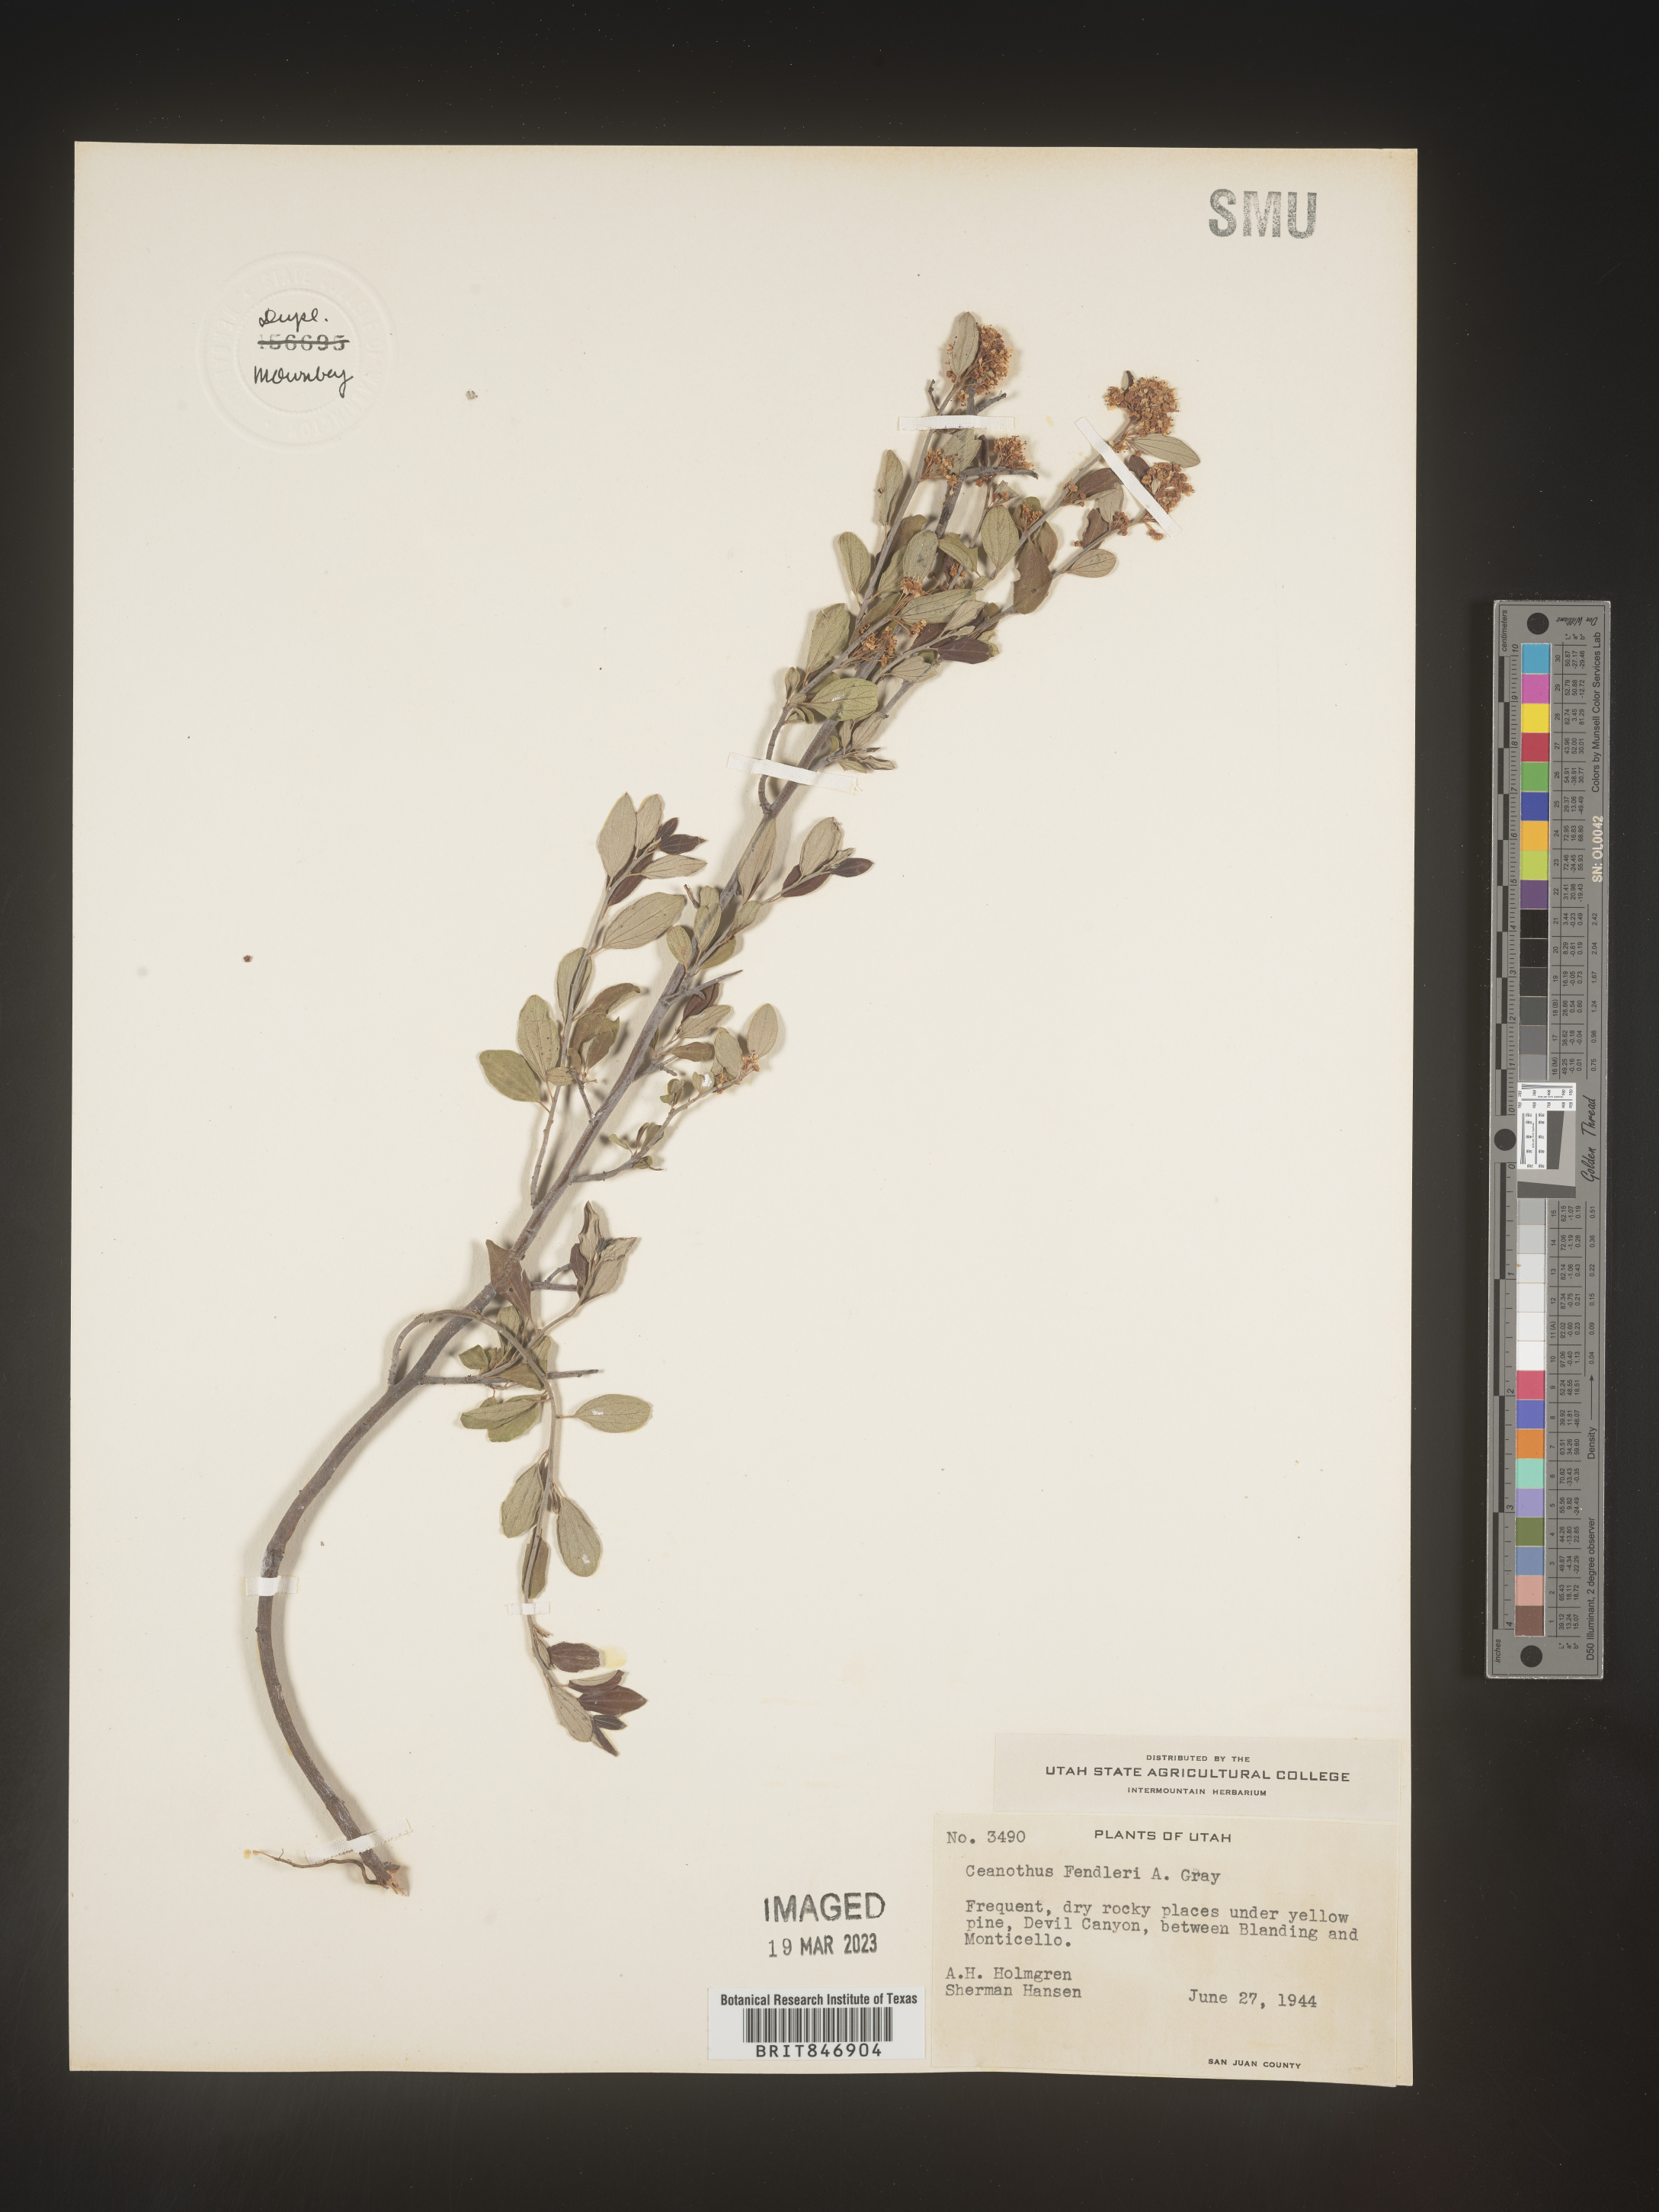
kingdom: Plantae
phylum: Tracheophyta
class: Magnoliopsida
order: Rosales
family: Rhamnaceae
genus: Ceanothus
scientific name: Ceanothus fendleri
